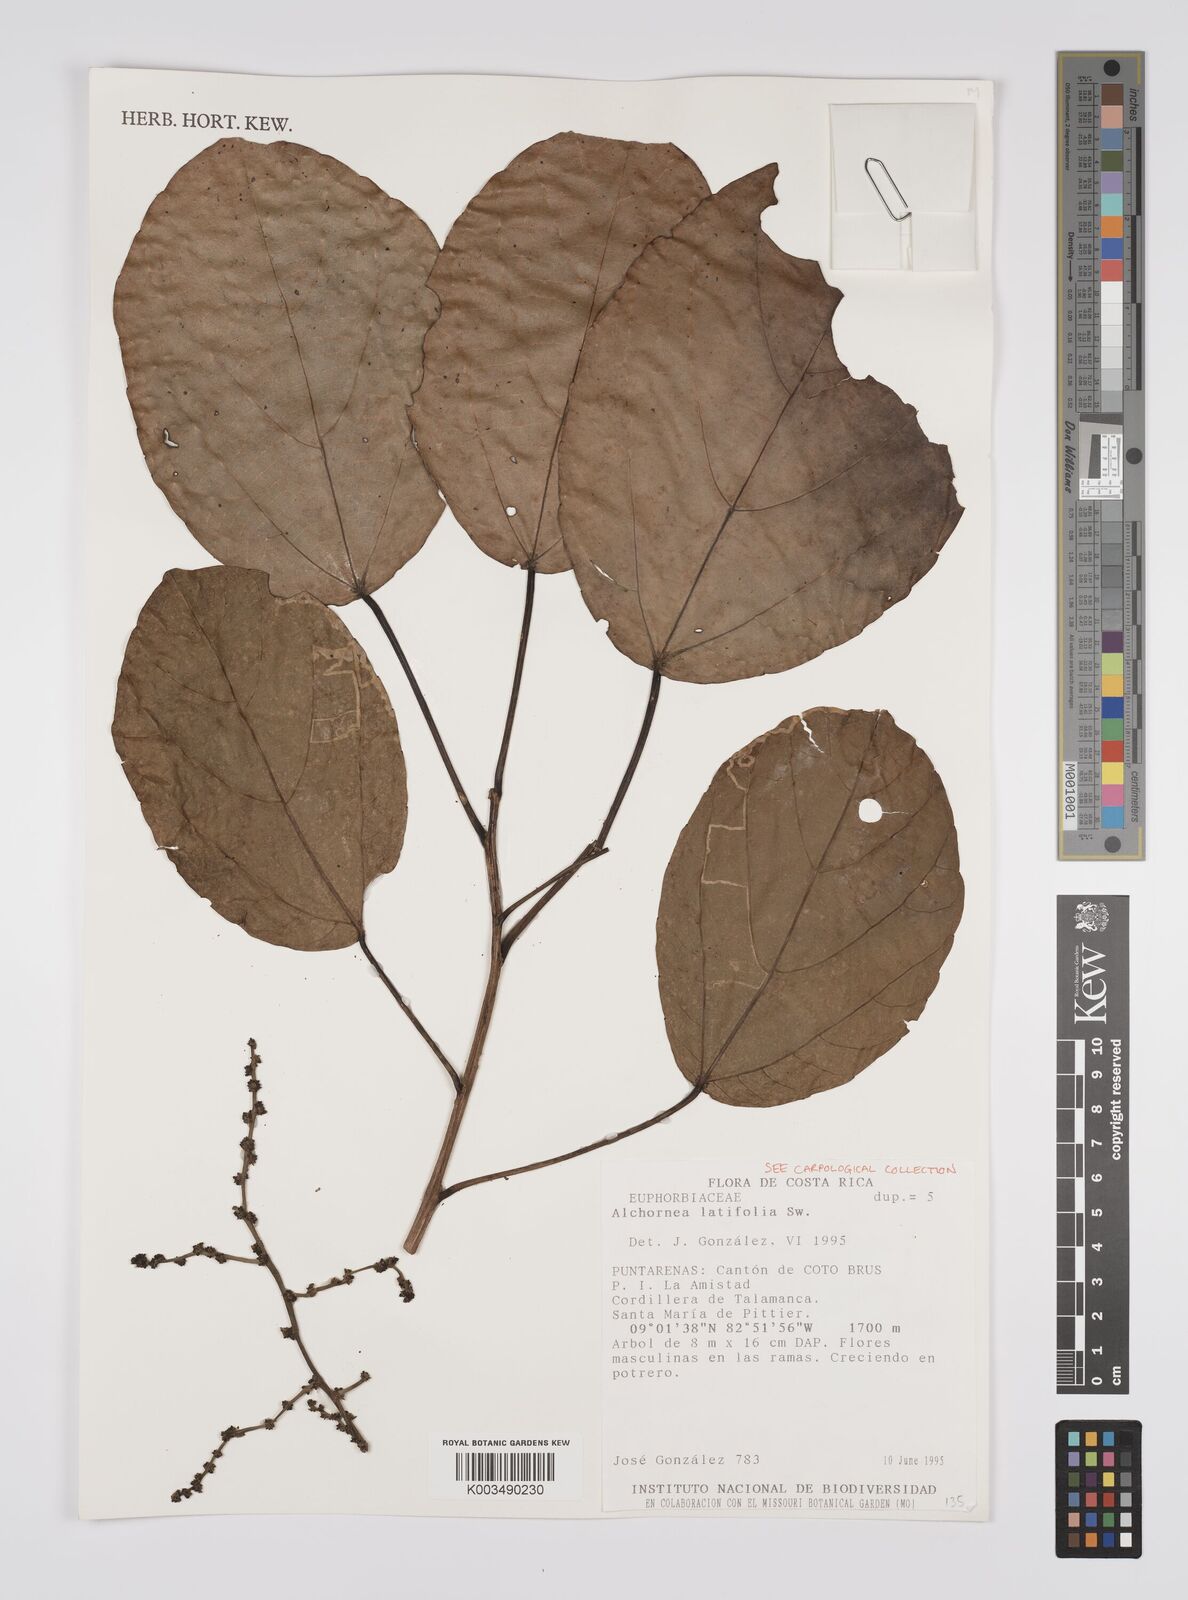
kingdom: Plantae
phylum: Tracheophyta
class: Magnoliopsida
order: Malpighiales
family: Euphorbiaceae
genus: Alchornea
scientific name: Alchornea latifolia
